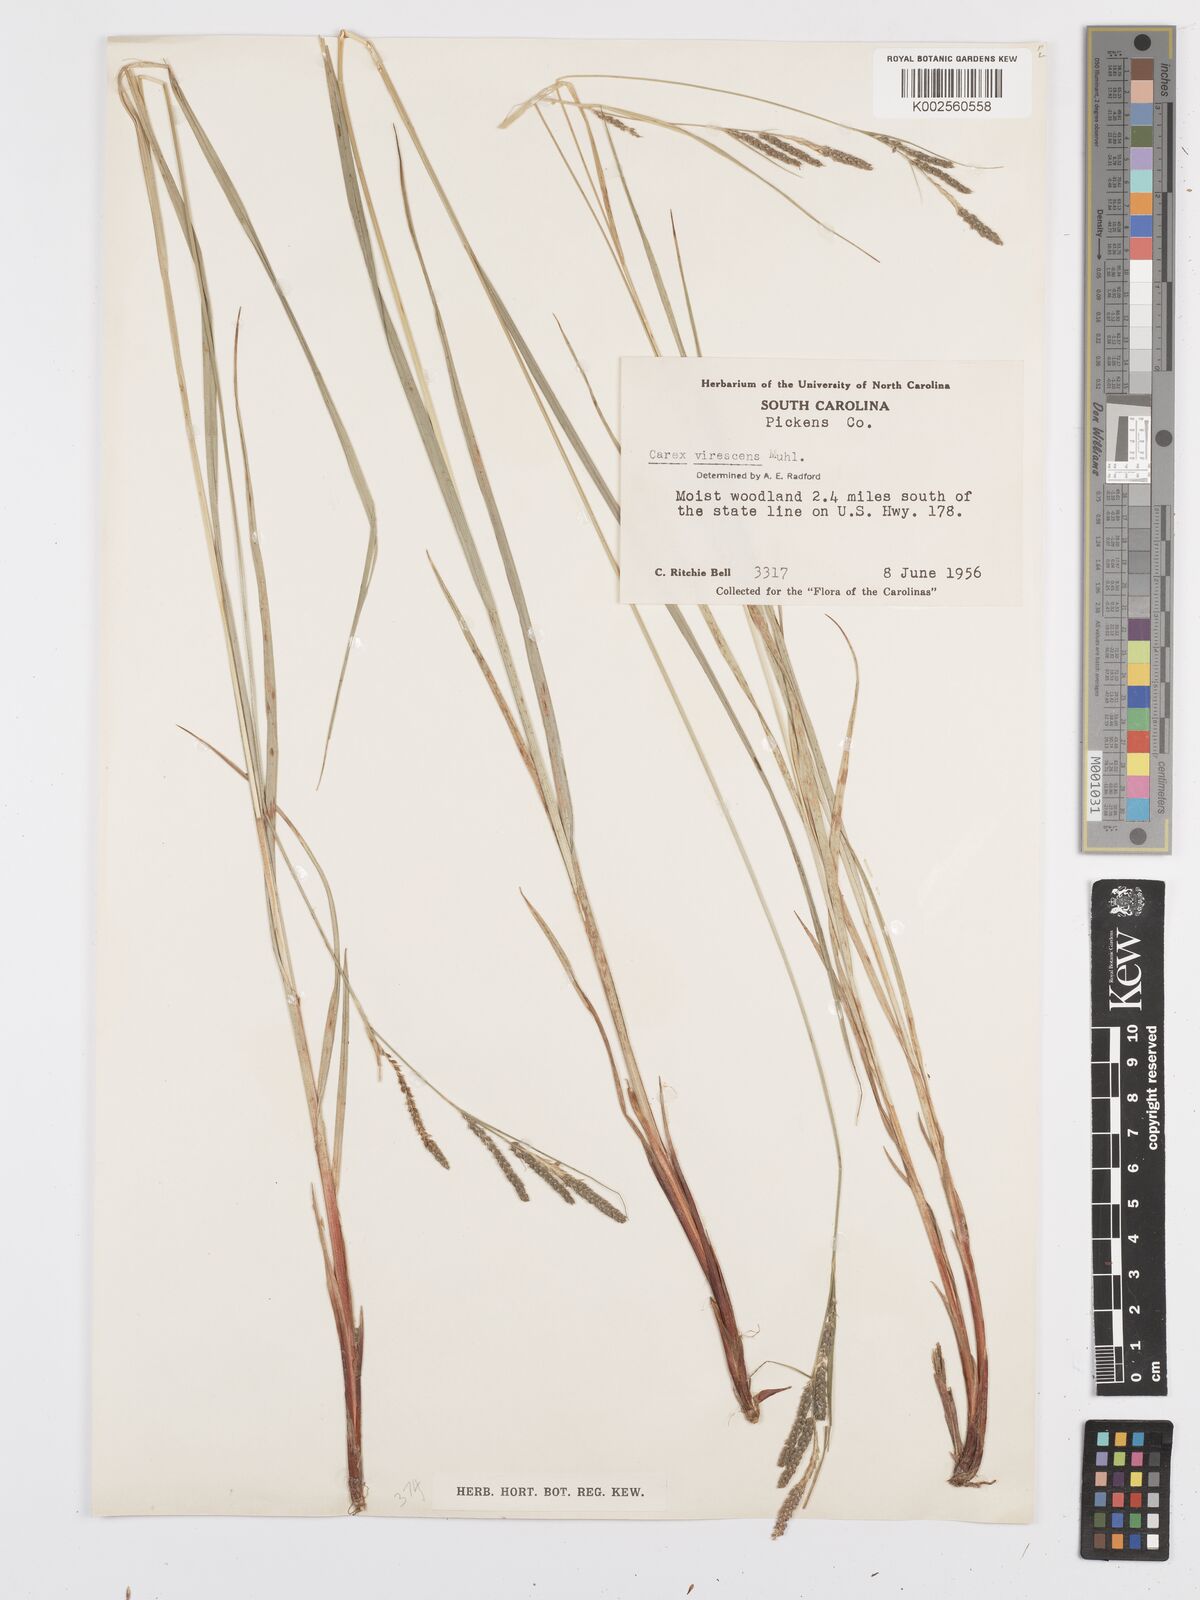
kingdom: Plantae
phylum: Tracheophyta
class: Liliopsida
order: Poales
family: Cyperaceae
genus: Carex
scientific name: Carex virescens
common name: Ribbed sedge
